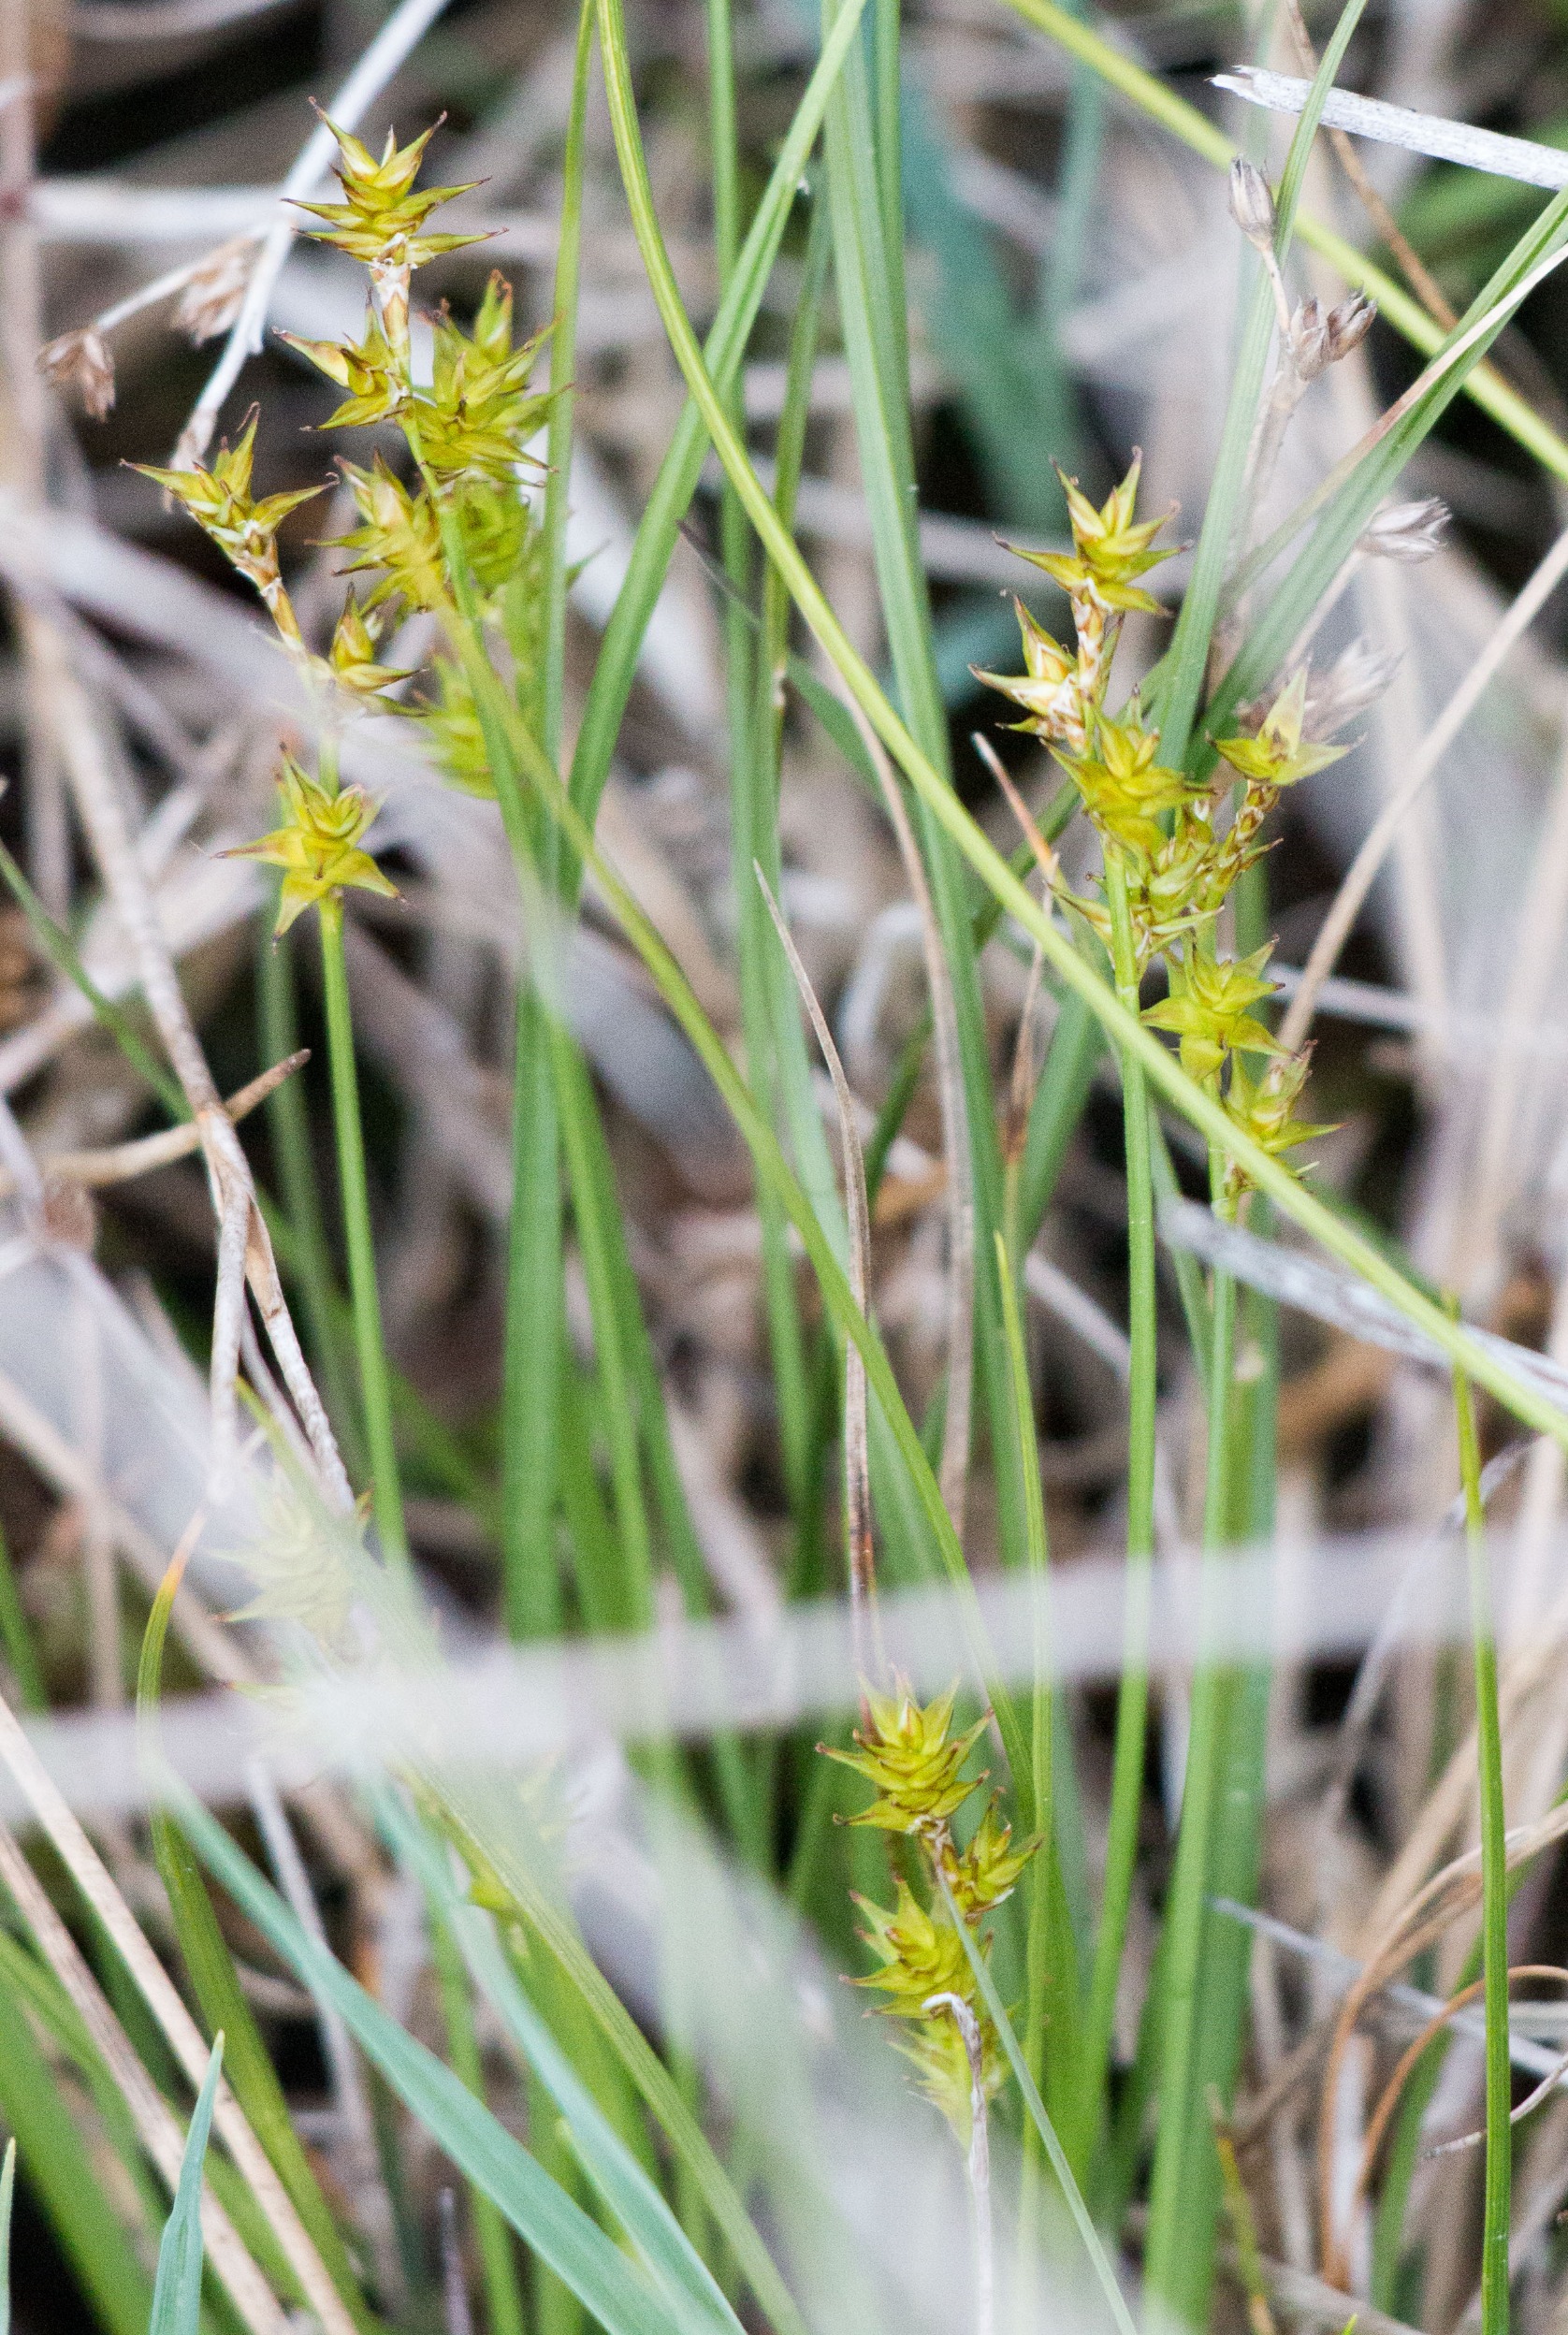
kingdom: Plantae
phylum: Tracheophyta
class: Liliopsida
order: Poales
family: Cyperaceae
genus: Carex
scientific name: Carex echinata
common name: Stjerne-star
